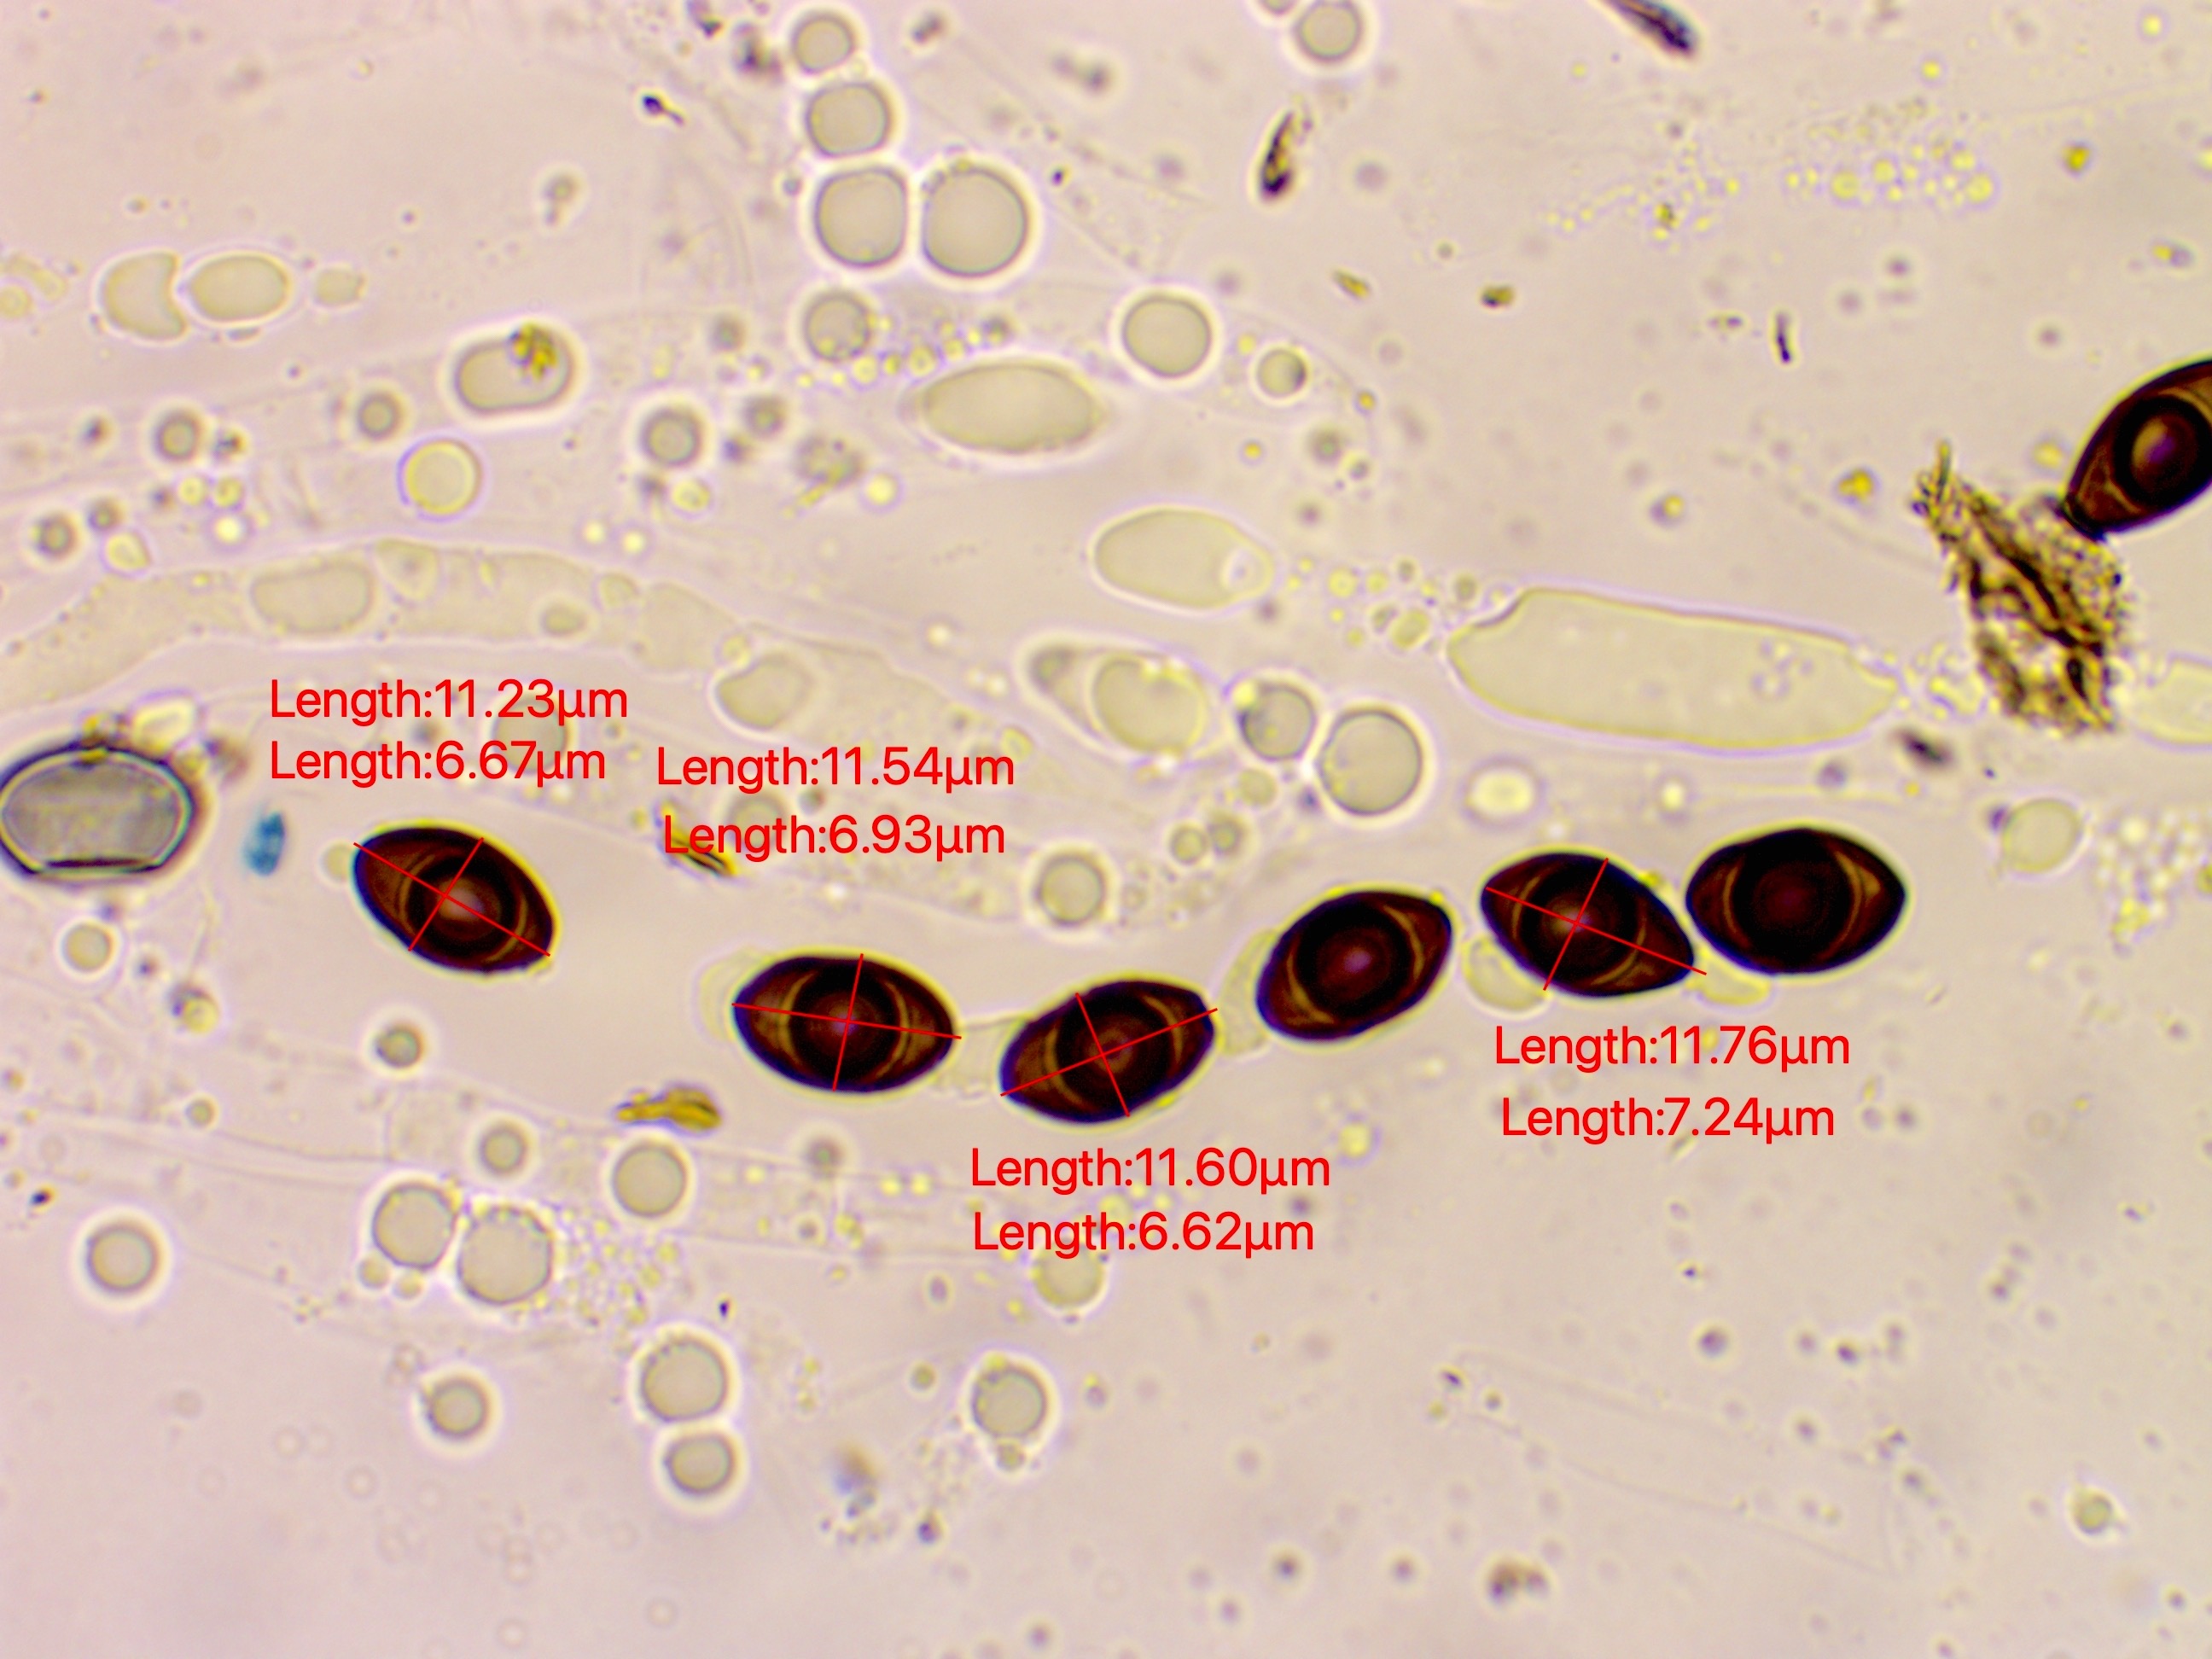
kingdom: Fungi
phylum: Ascomycota
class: Sordariomycetes
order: Xylariales
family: Graphostromataceae
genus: Biscogniauxia
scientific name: Biscogniauxia nummularia
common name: bøge-kulskive
